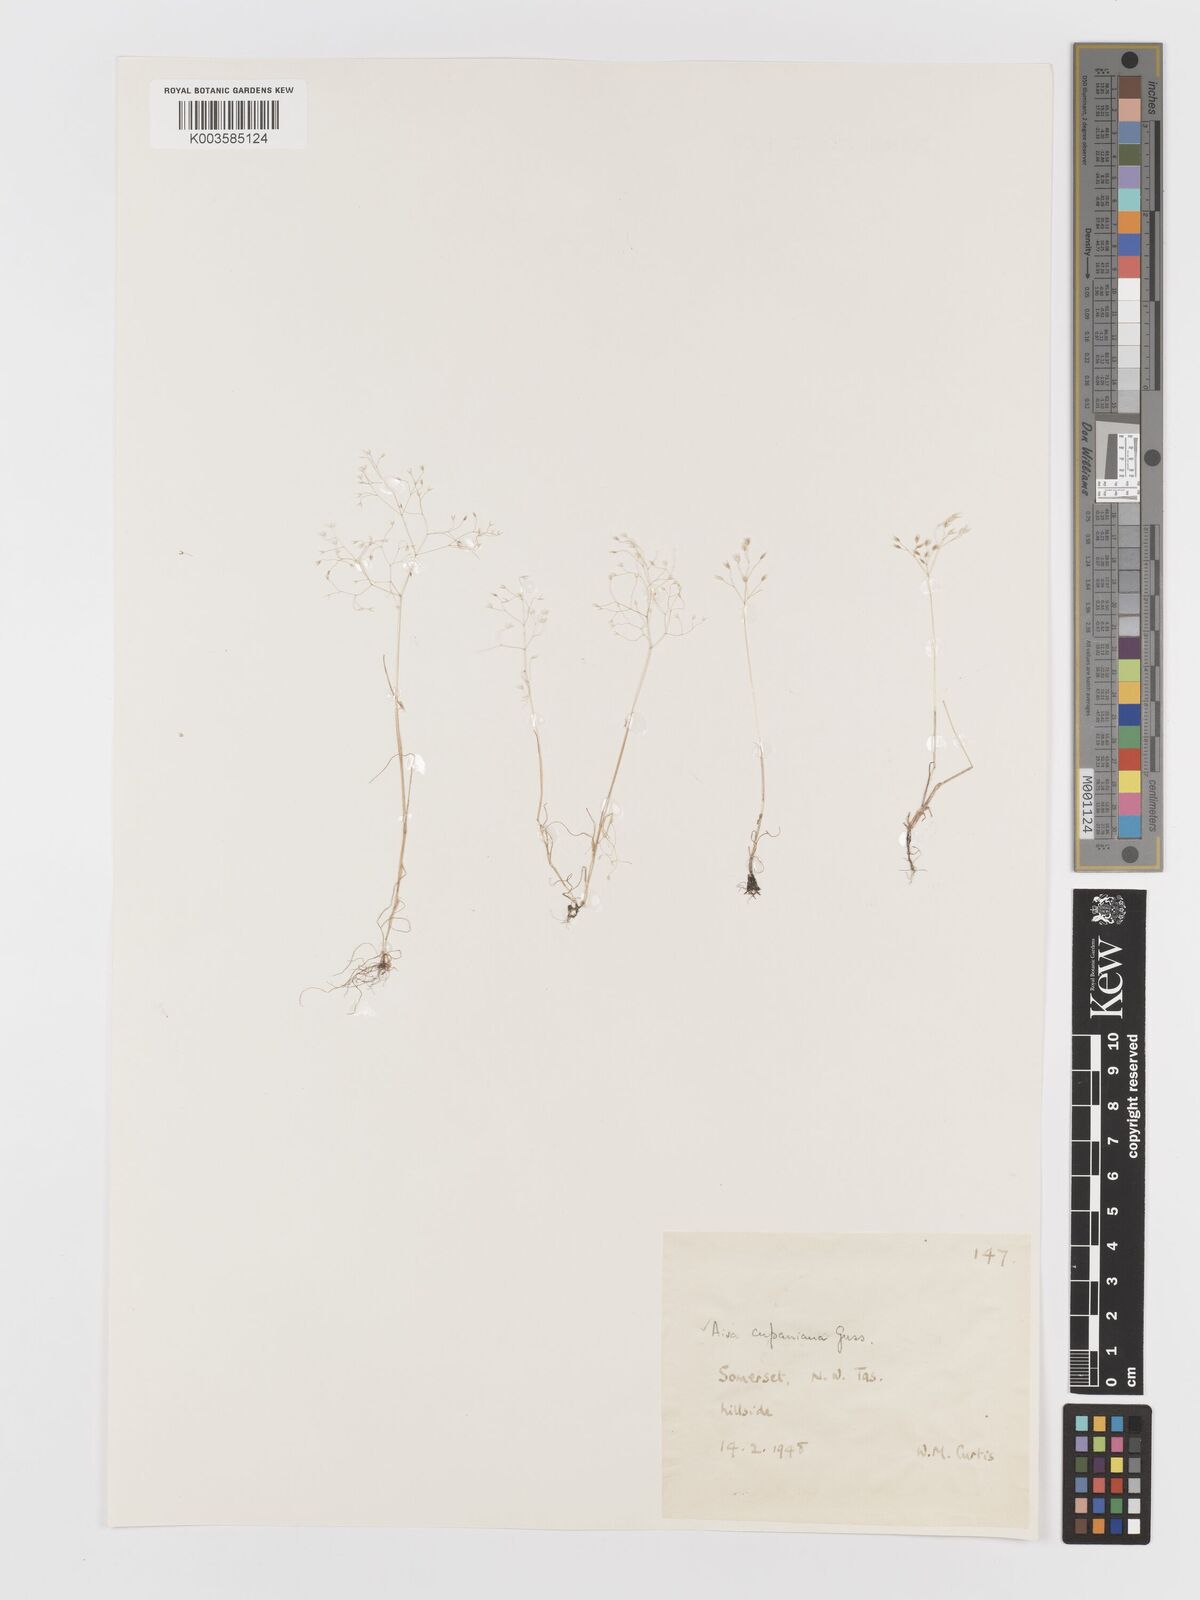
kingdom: Plantae
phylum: Tracheophyta
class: Liliopsida
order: Poales
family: Poaceae
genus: Aira
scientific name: Aira cupaniana
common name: Silver hairgrass
